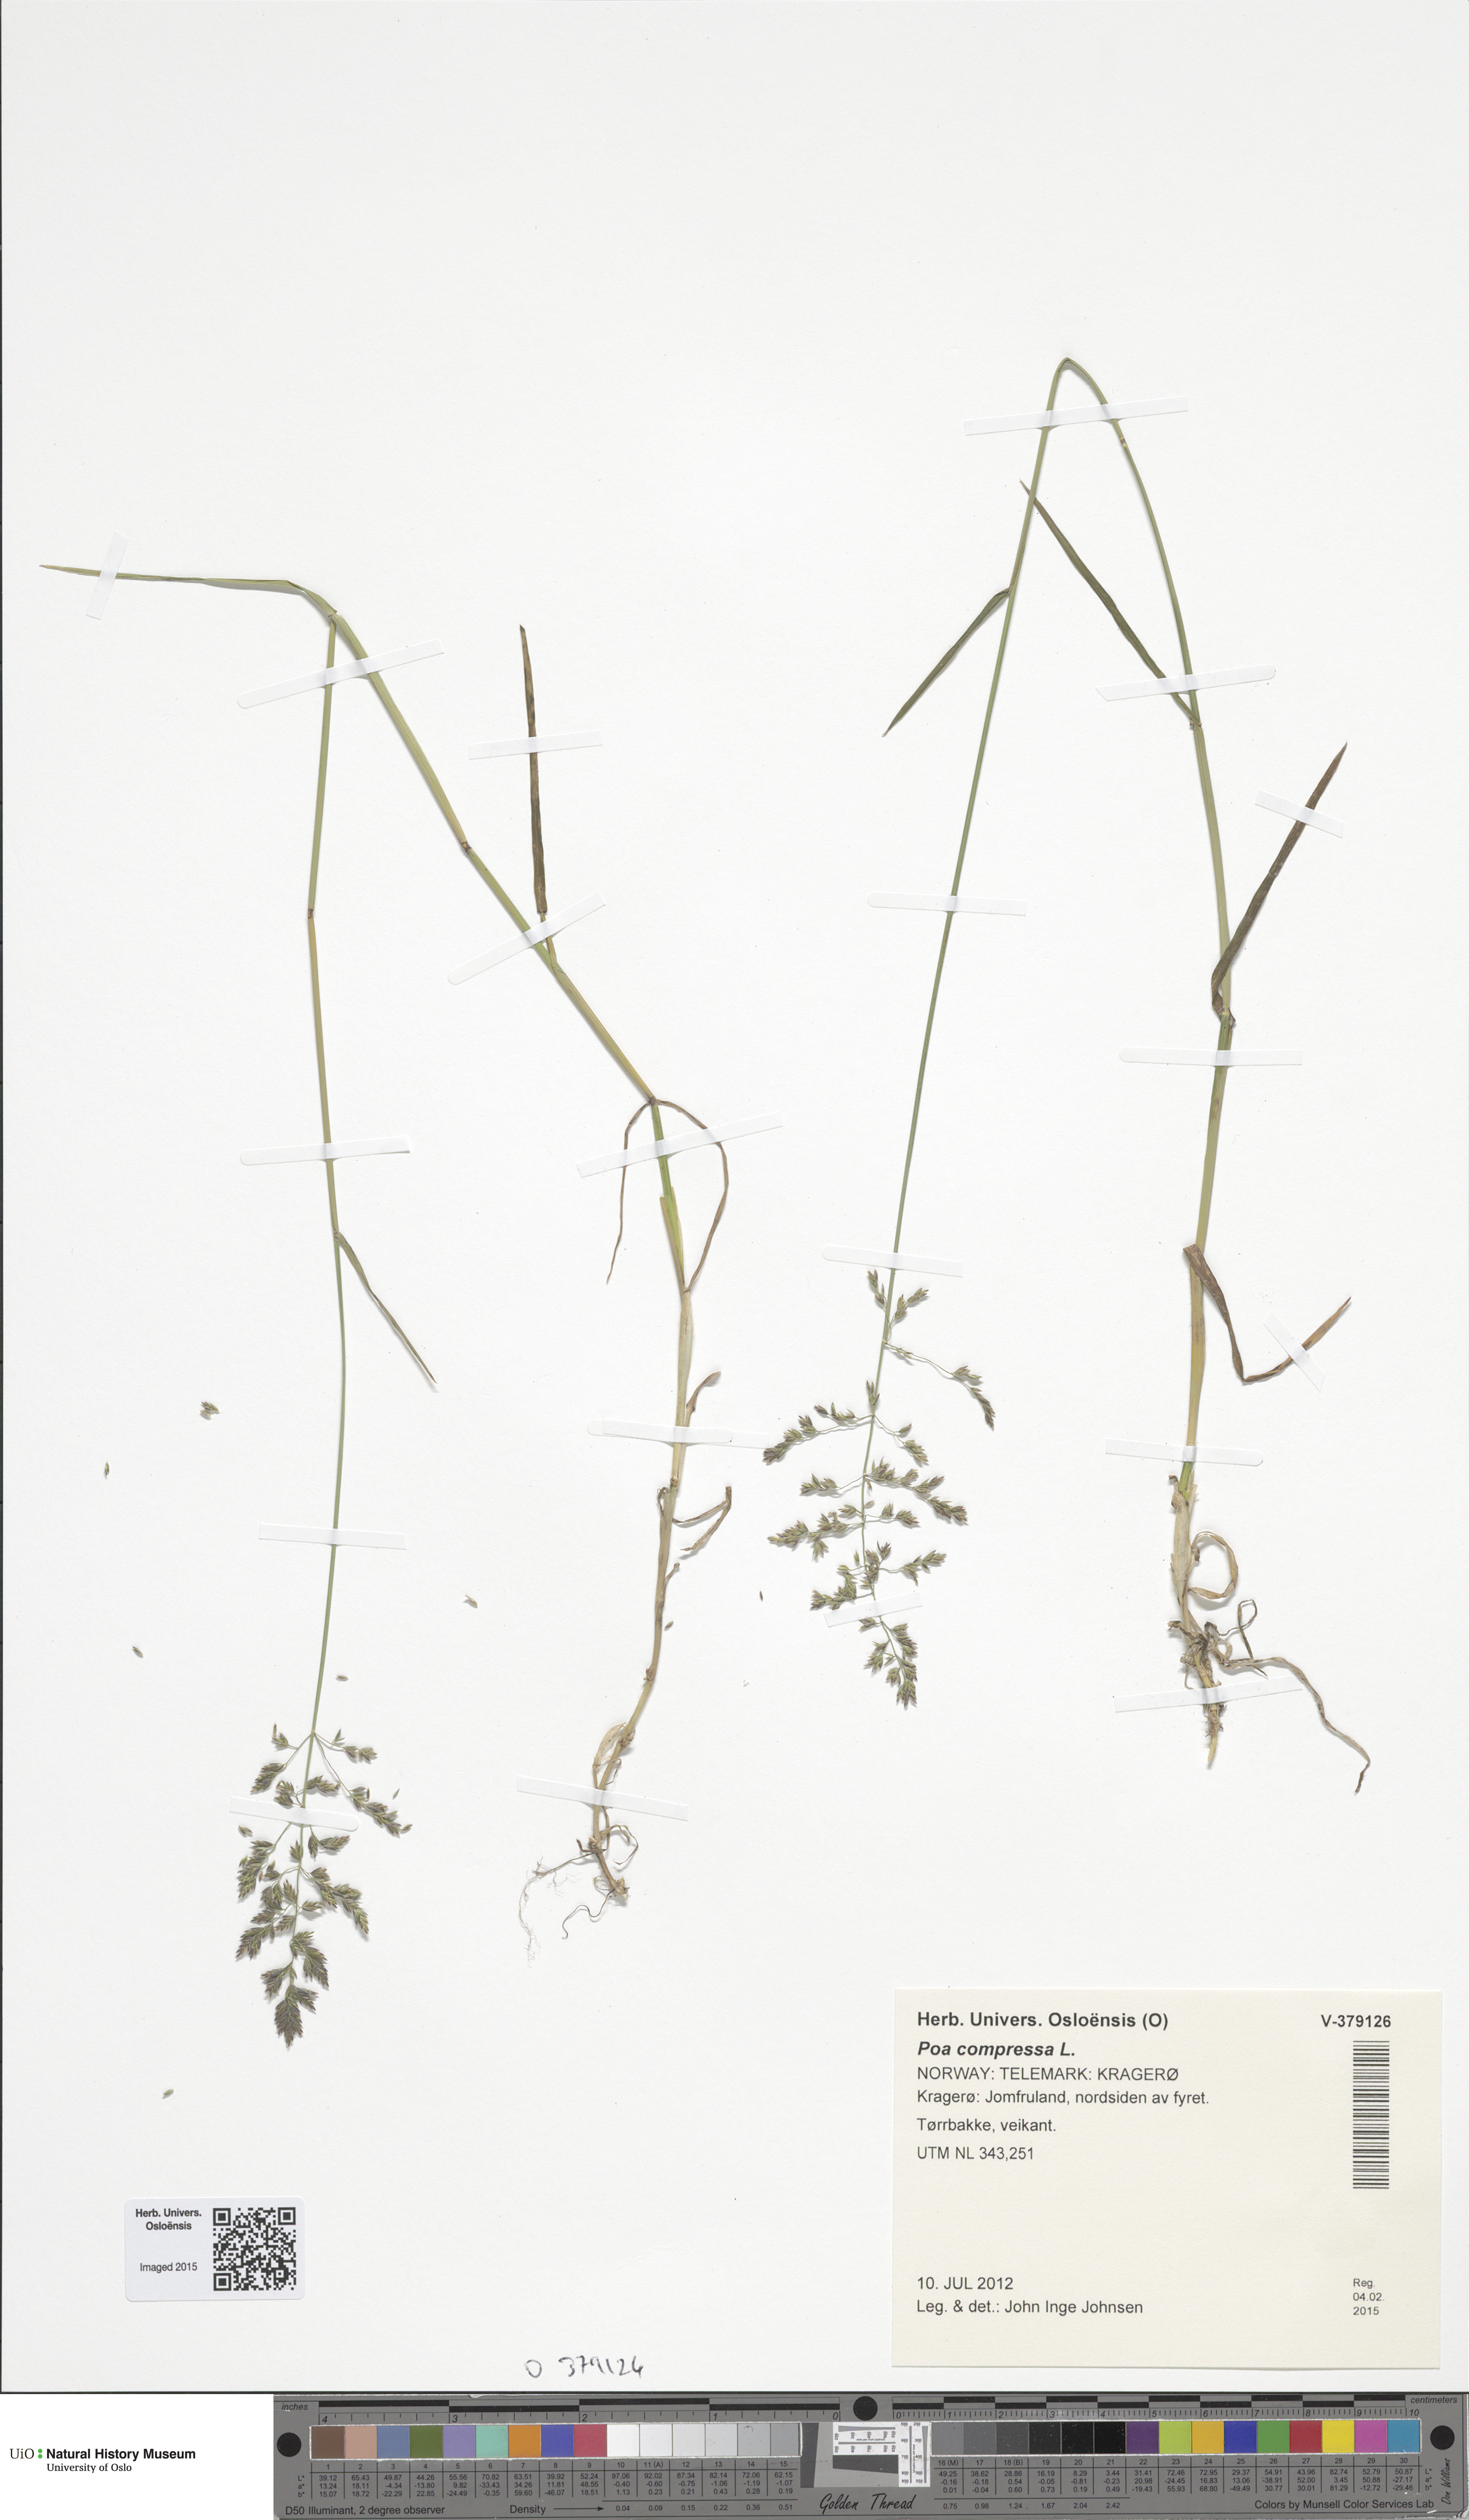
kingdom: Plantae
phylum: Tracheophyta
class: Liliopsida
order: Poales
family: Poaceae
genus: Poa
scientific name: Poa compressa
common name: Canada bluegrass
